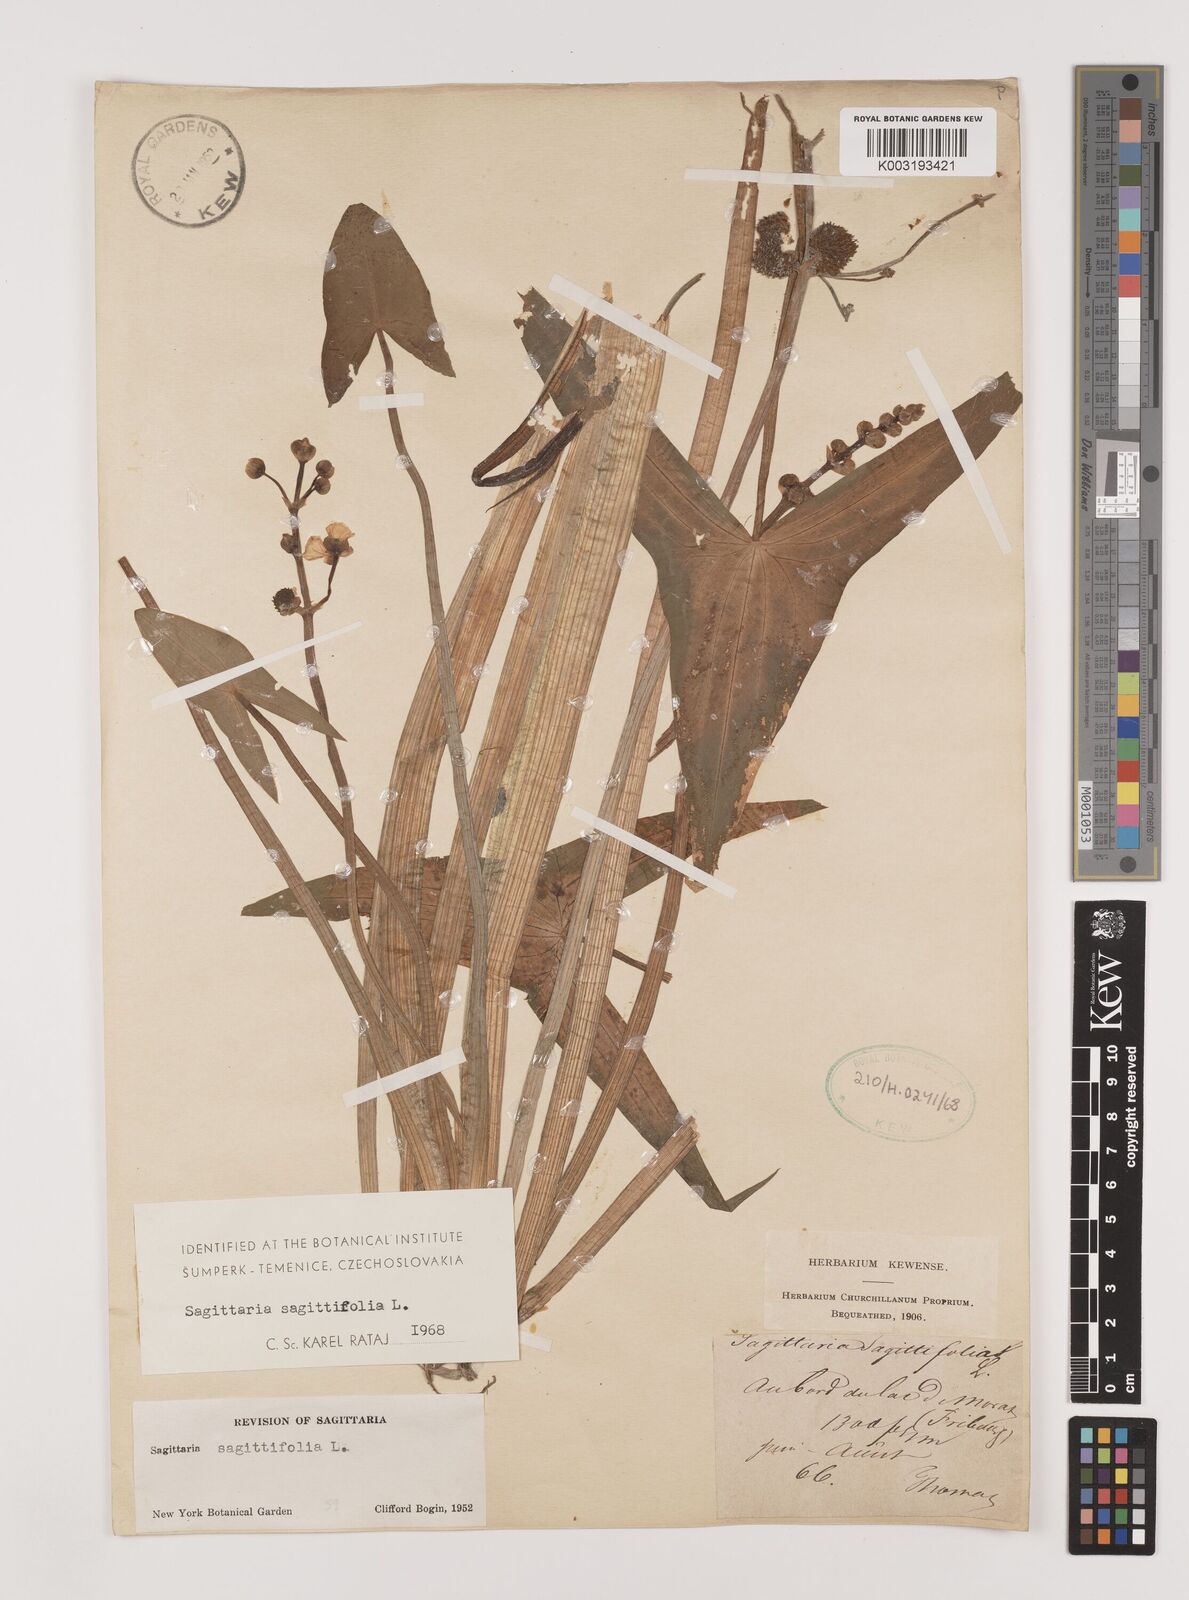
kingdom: Plantae
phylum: Tracheophyta
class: Liliopsida
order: Alismatales
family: Alismataceae
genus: Sagittaria
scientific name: Sagittaria sagittifolia
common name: Arrowhead
